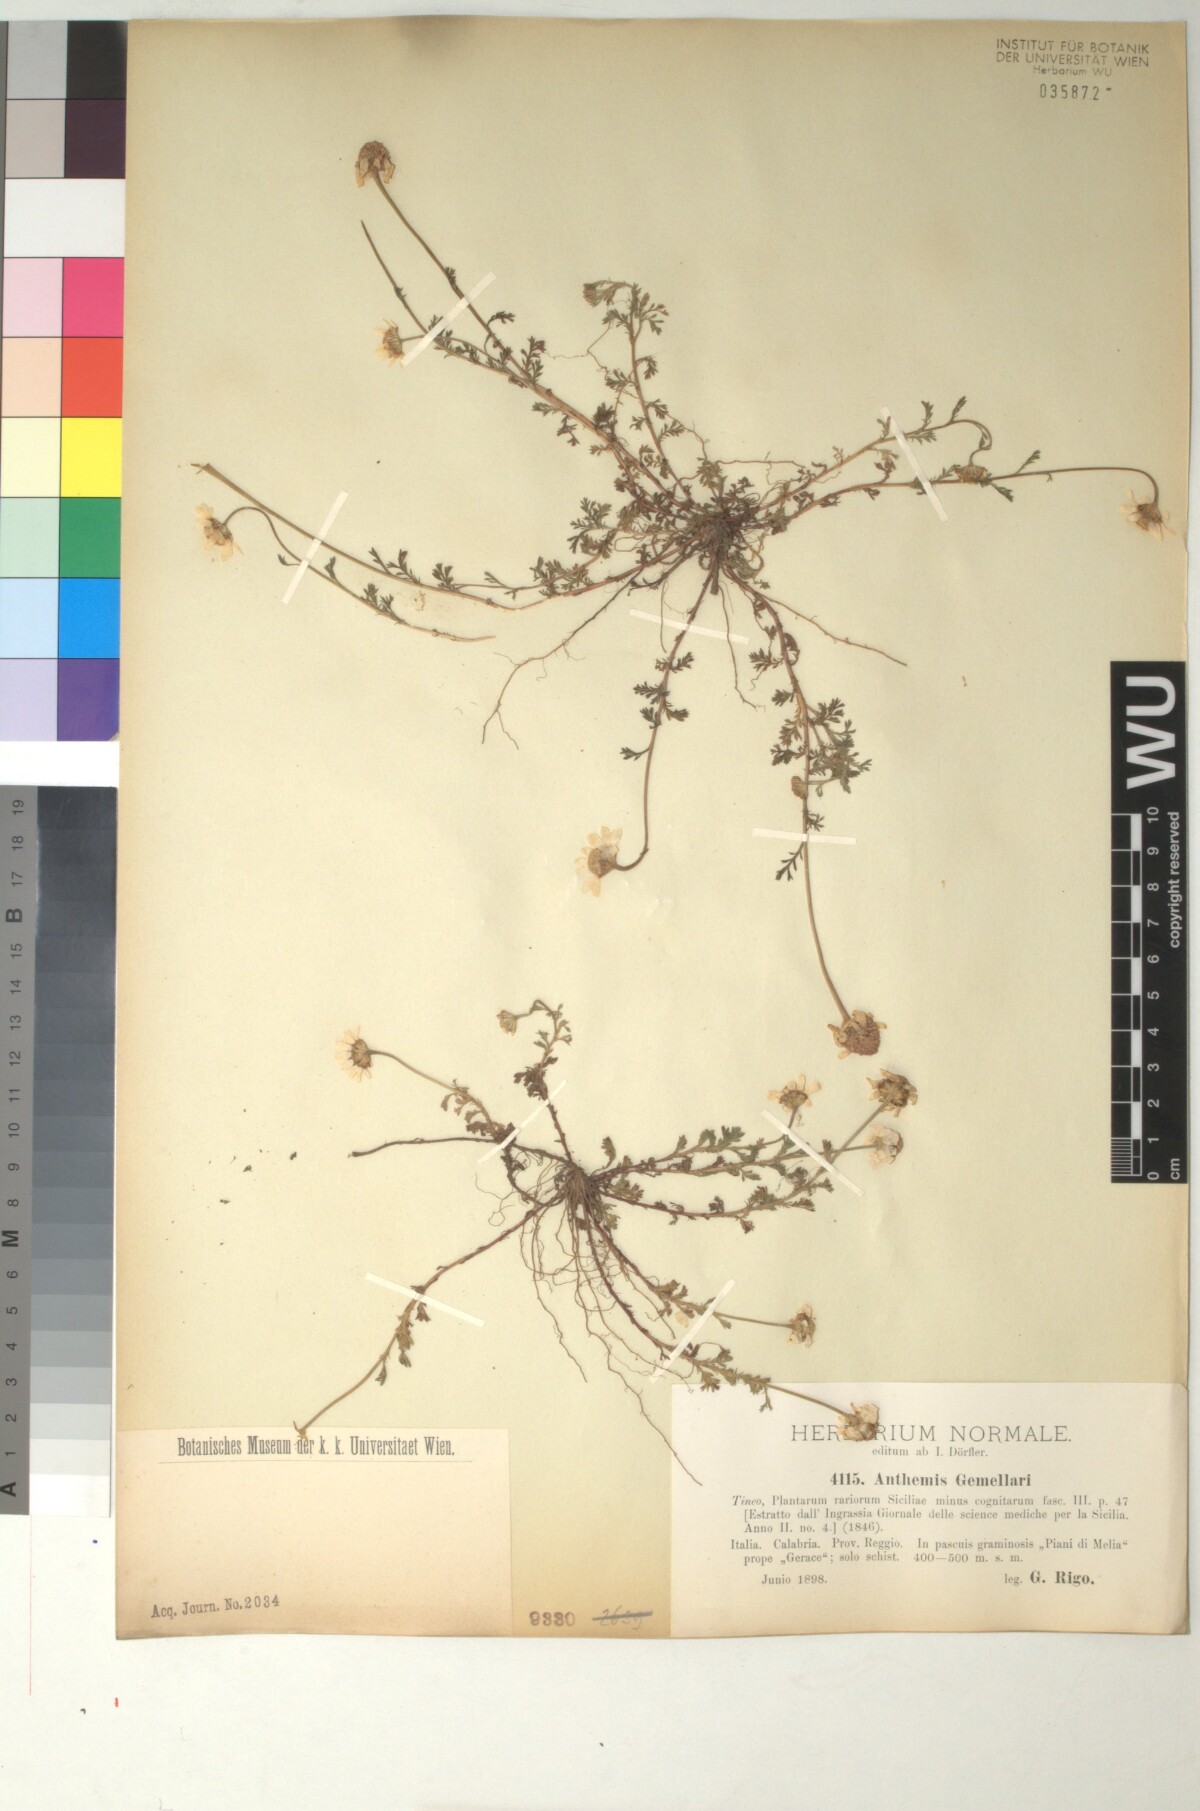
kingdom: Plantae
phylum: Tracheophyta
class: Magnoliopsida
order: Asterales
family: Asteraceae
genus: Anthemis
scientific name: Anthemis arvensis
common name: Corn chamomile
